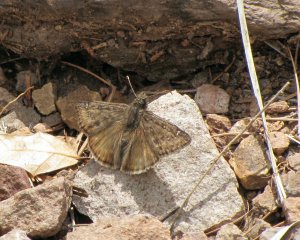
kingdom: Animalia
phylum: Arthropoda
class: Insecta
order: Lepidoptera
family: Hesperiidae
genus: Gesta
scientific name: Gesta
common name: Horace's Duskywing
